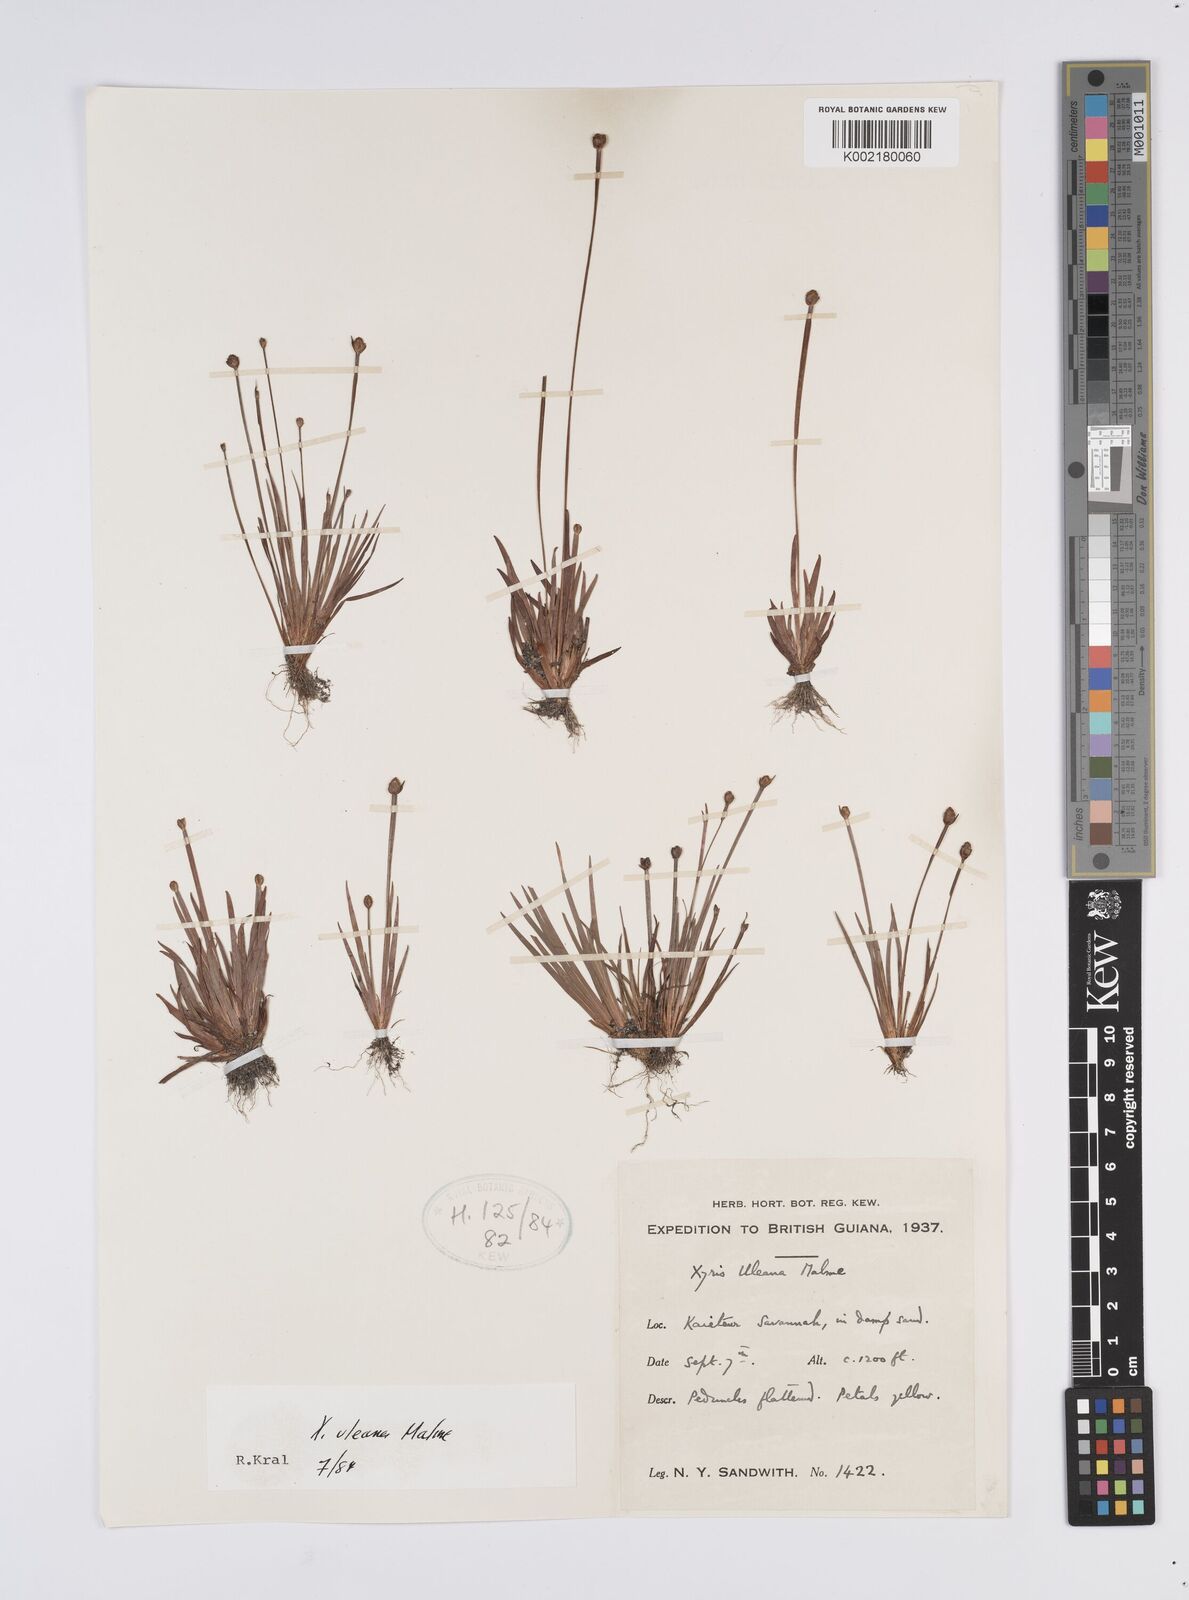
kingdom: Plantae
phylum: Tracheophyta
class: Liliopsida
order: Poales
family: Xyridaceae
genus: Xyris
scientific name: Xyris uleana
